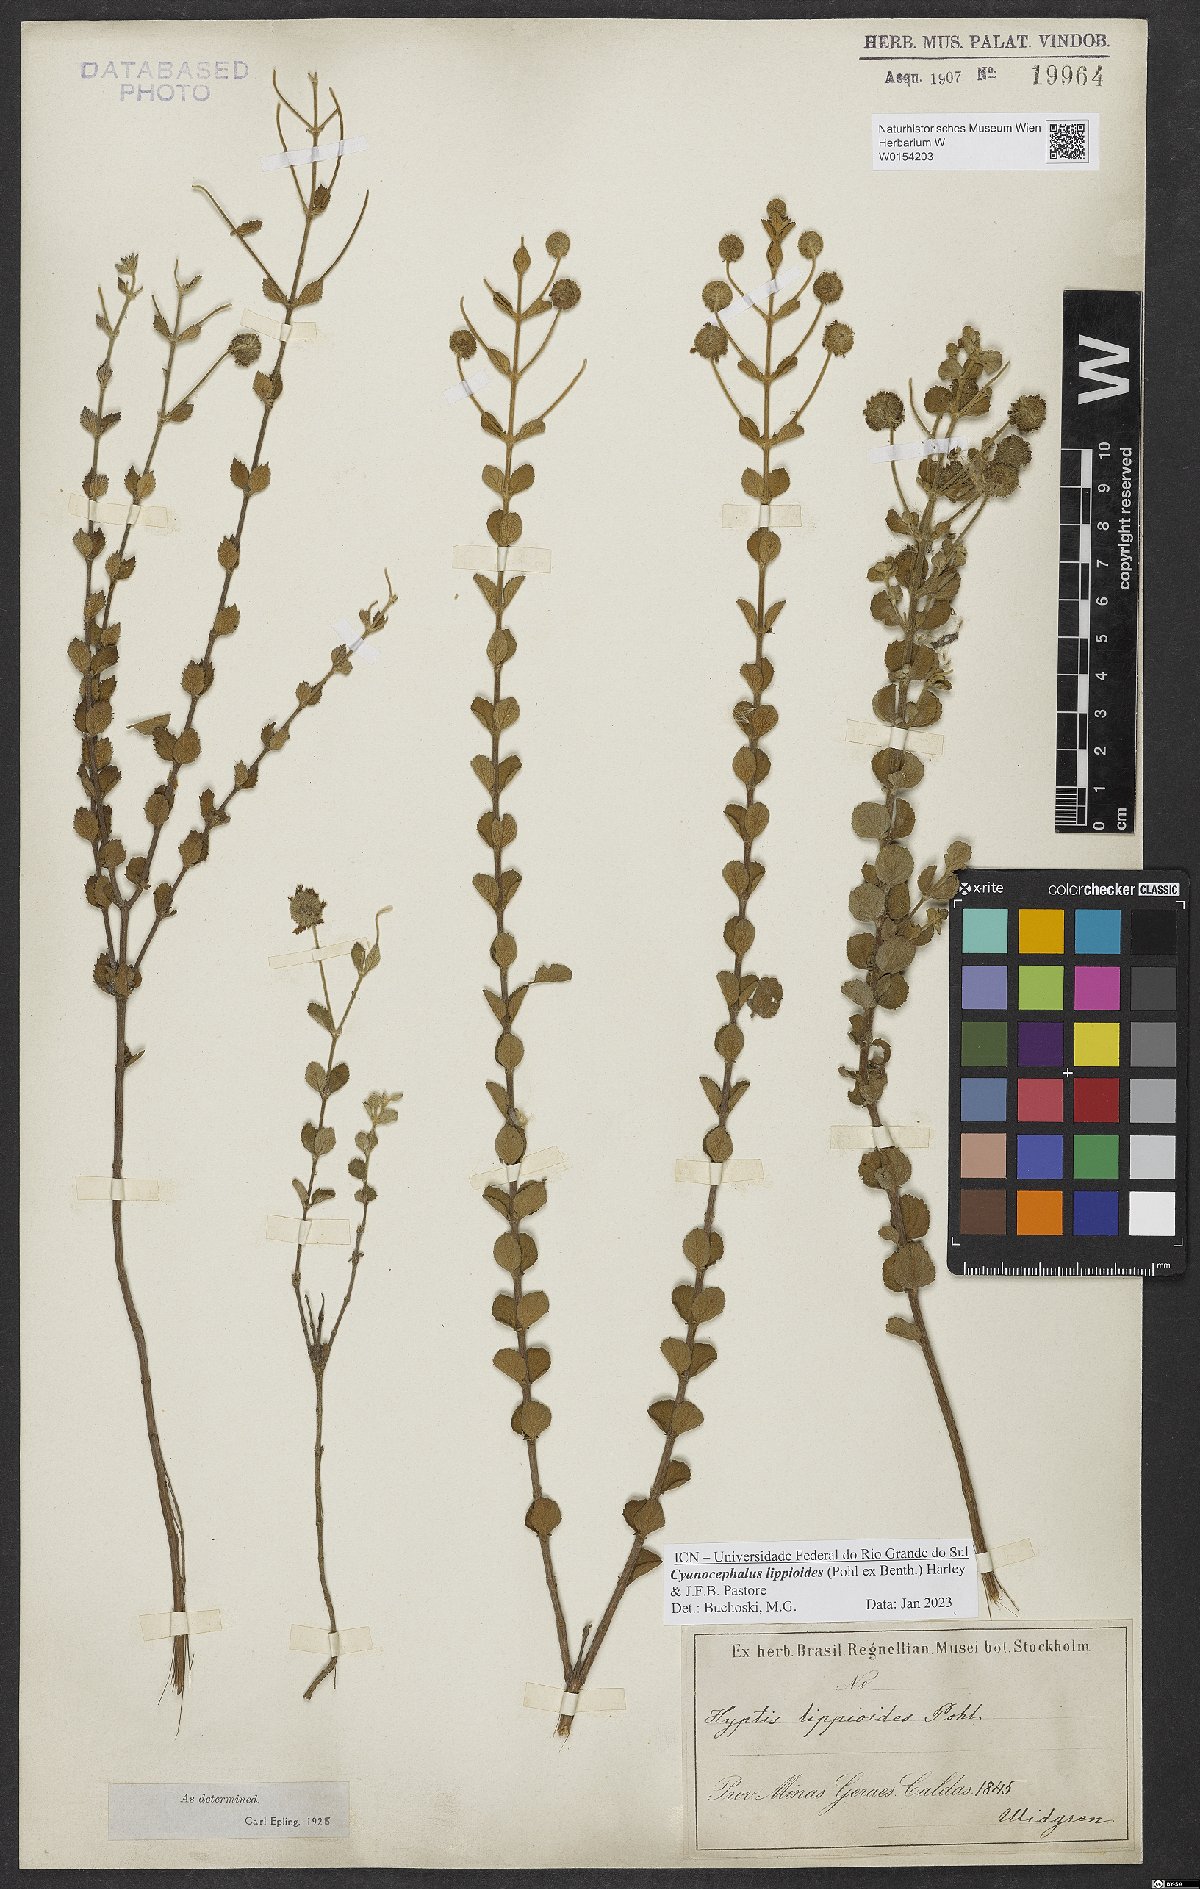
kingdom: Plantae
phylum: Tracheophyta
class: Magnoliopsida
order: Lamiales
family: Lamiaceae
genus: Cyanocephalus
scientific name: Cyanocephalus lippioides
